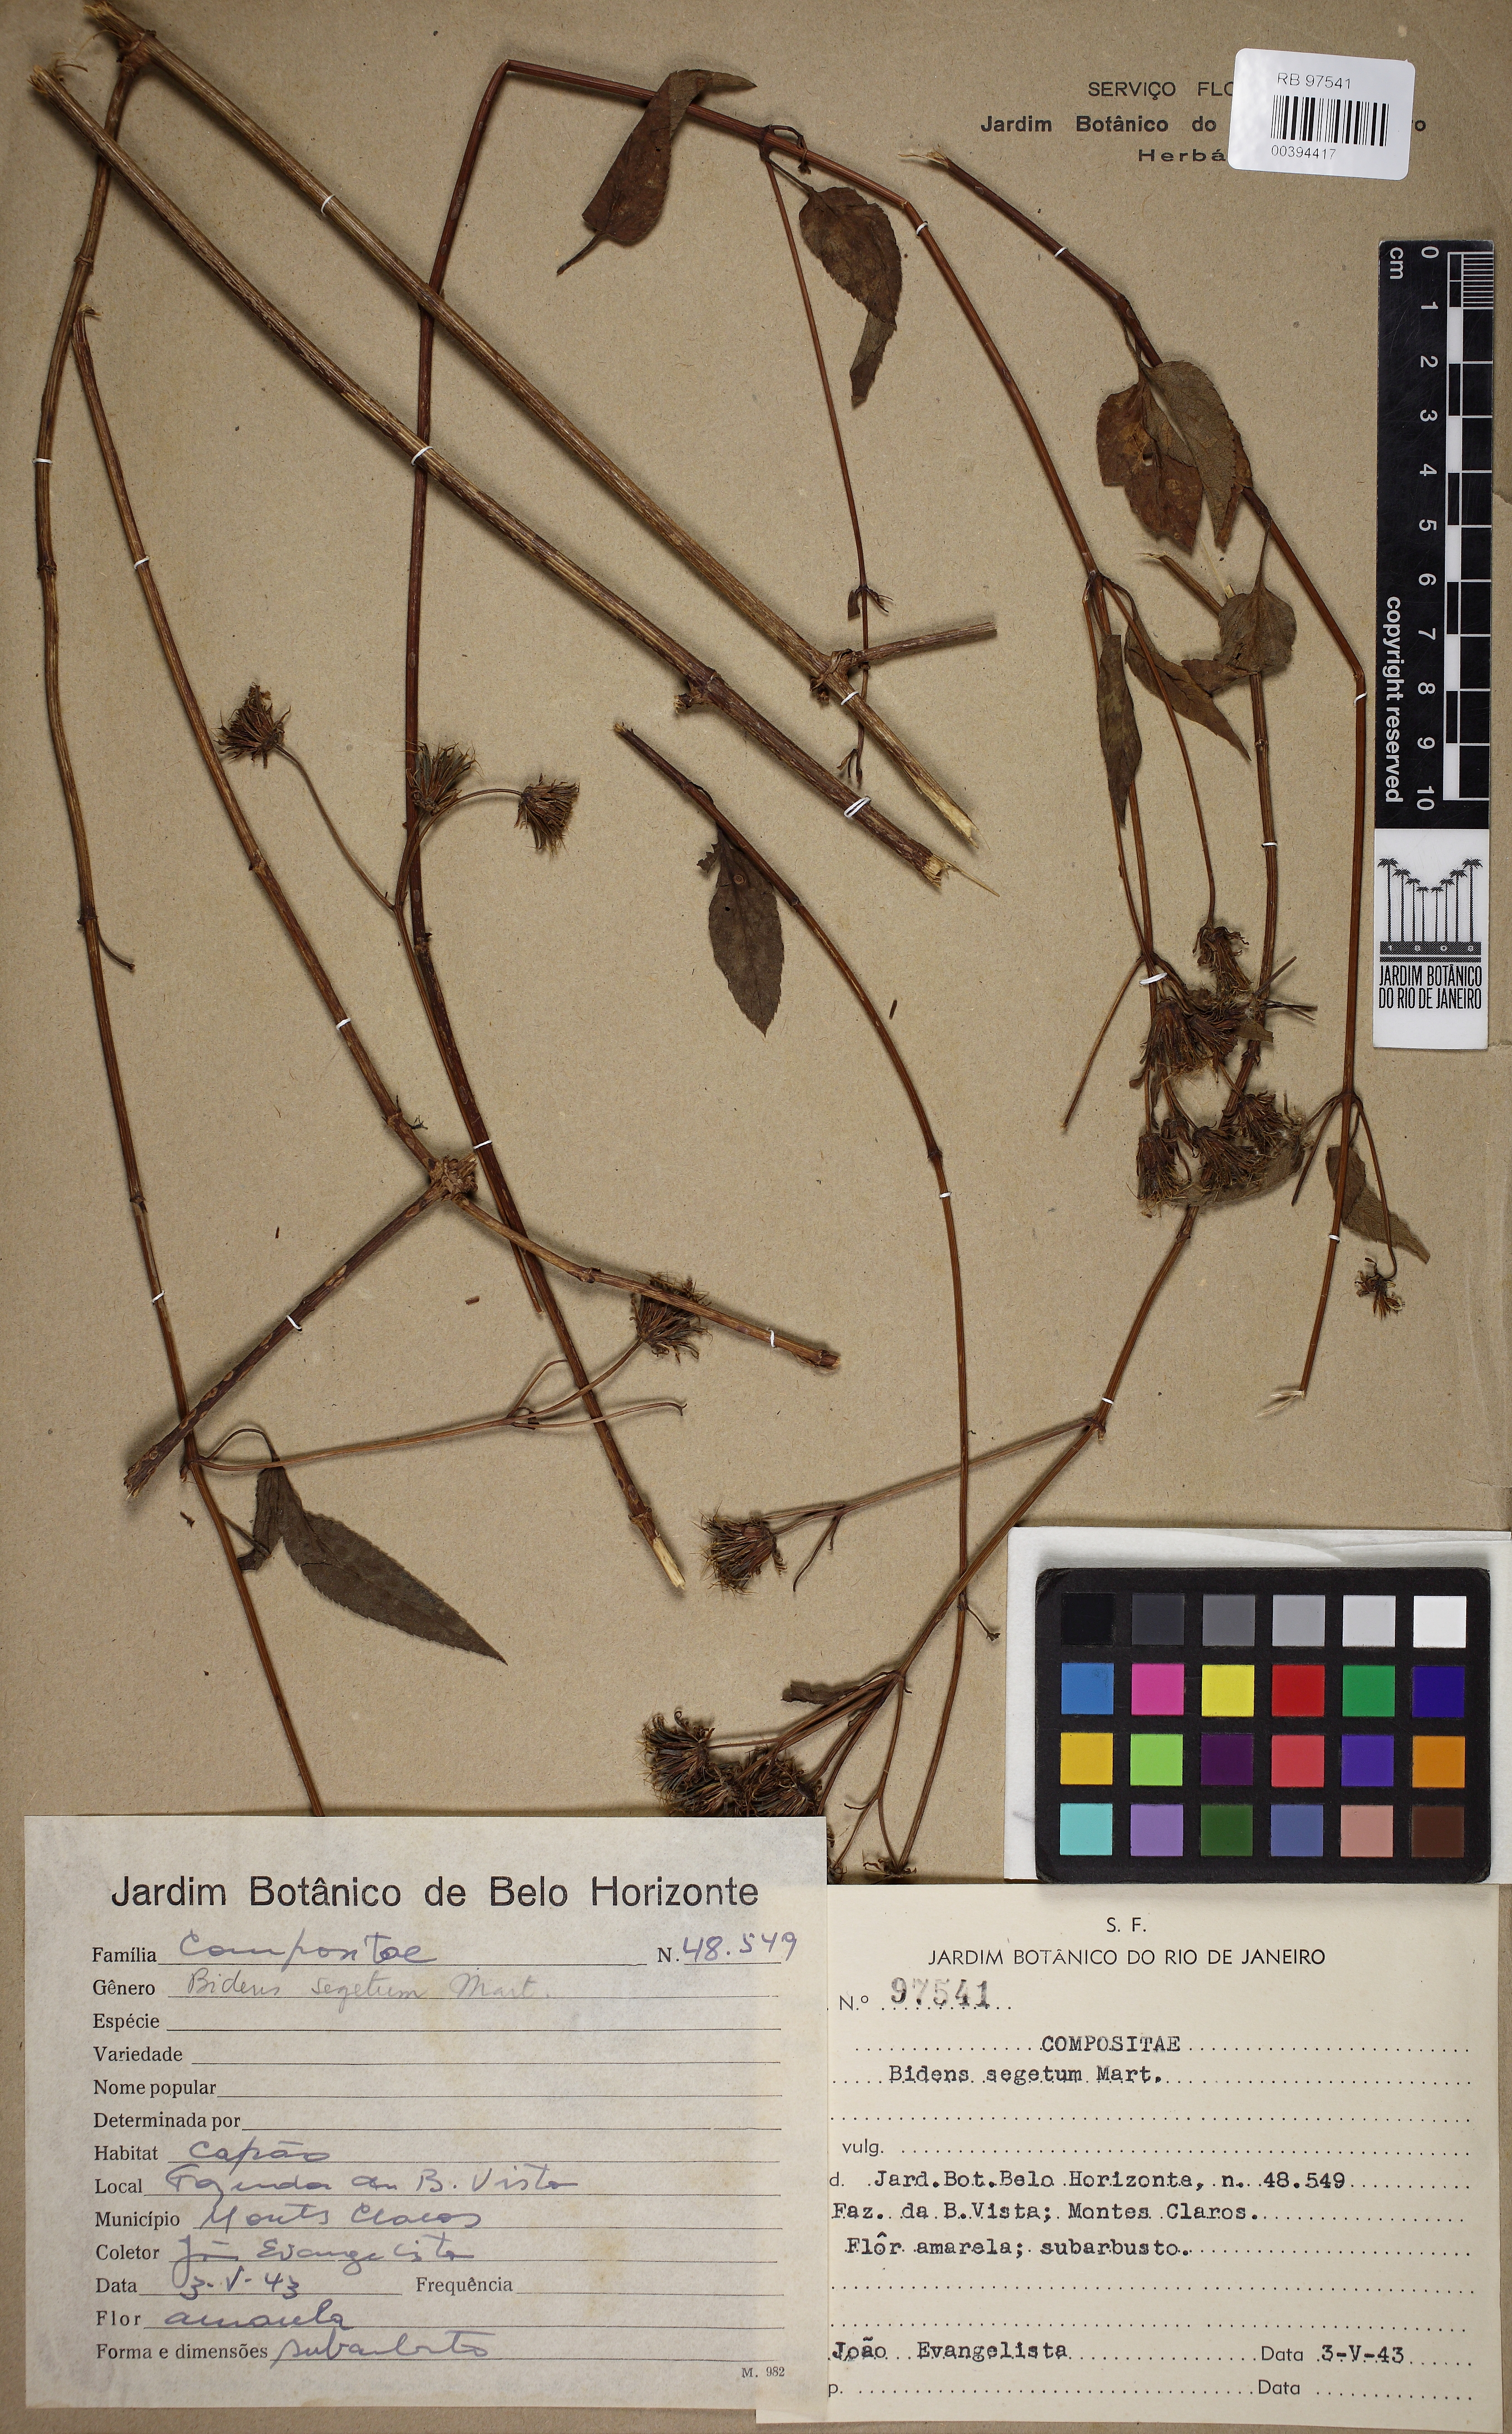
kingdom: Plantae
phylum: Tracheophyta
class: Magnoliopsida
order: Asterales
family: Asteraceae
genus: Bidens
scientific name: Bidens segetum
